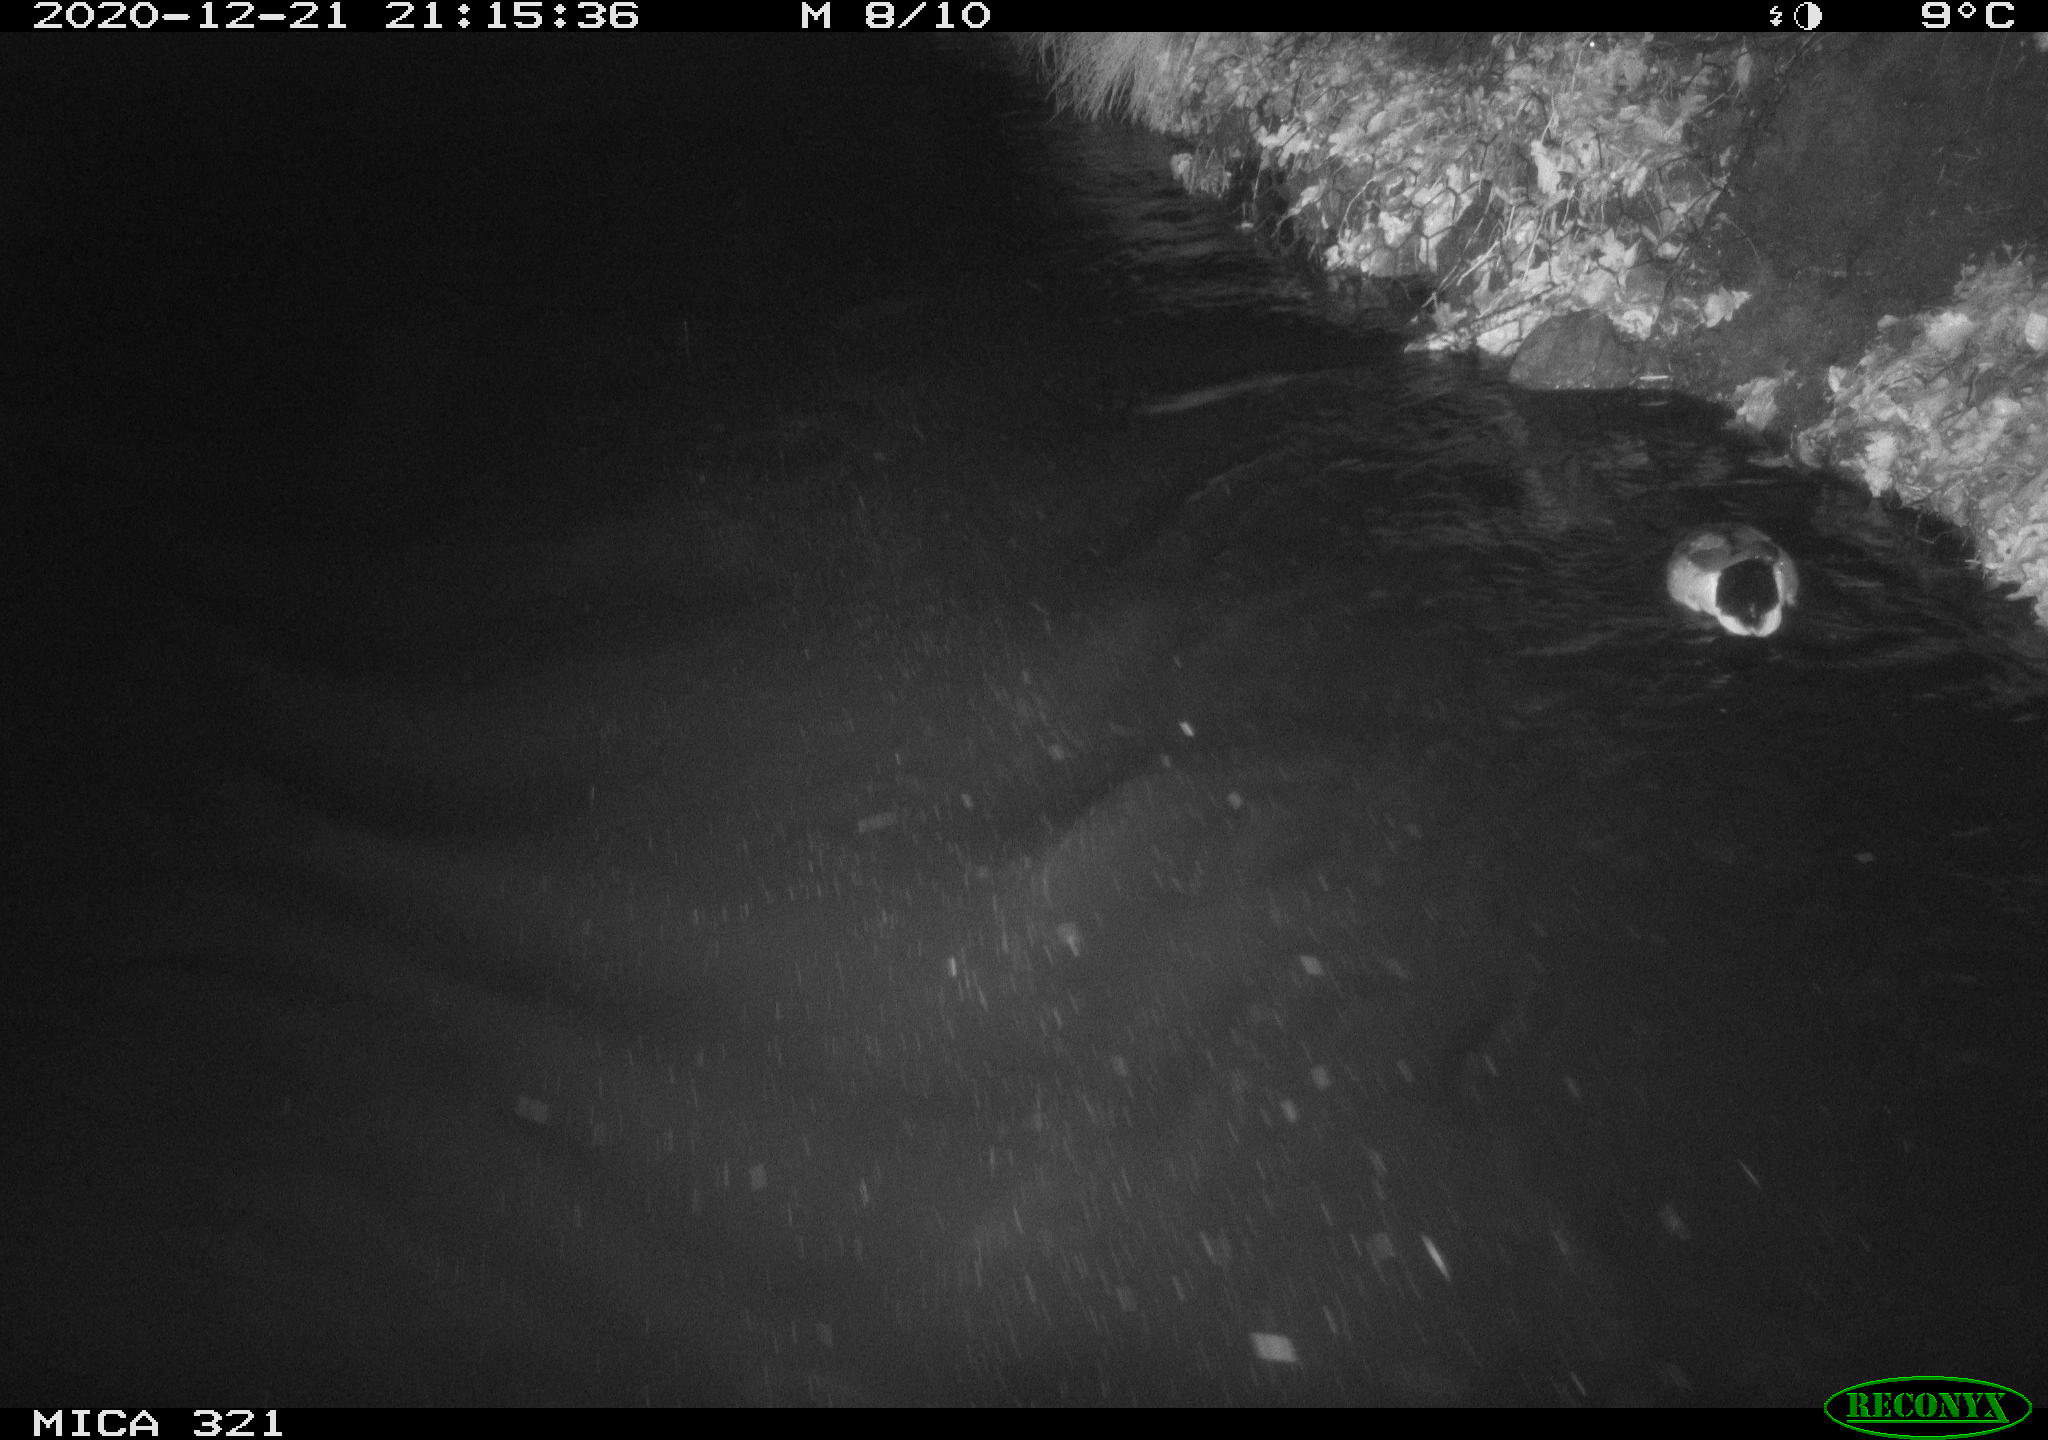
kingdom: Animalia
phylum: Chordata
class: Aves
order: Anseriformes
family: Anatidae
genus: Anas
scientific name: Anas platyrhynchos
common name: Mallard
